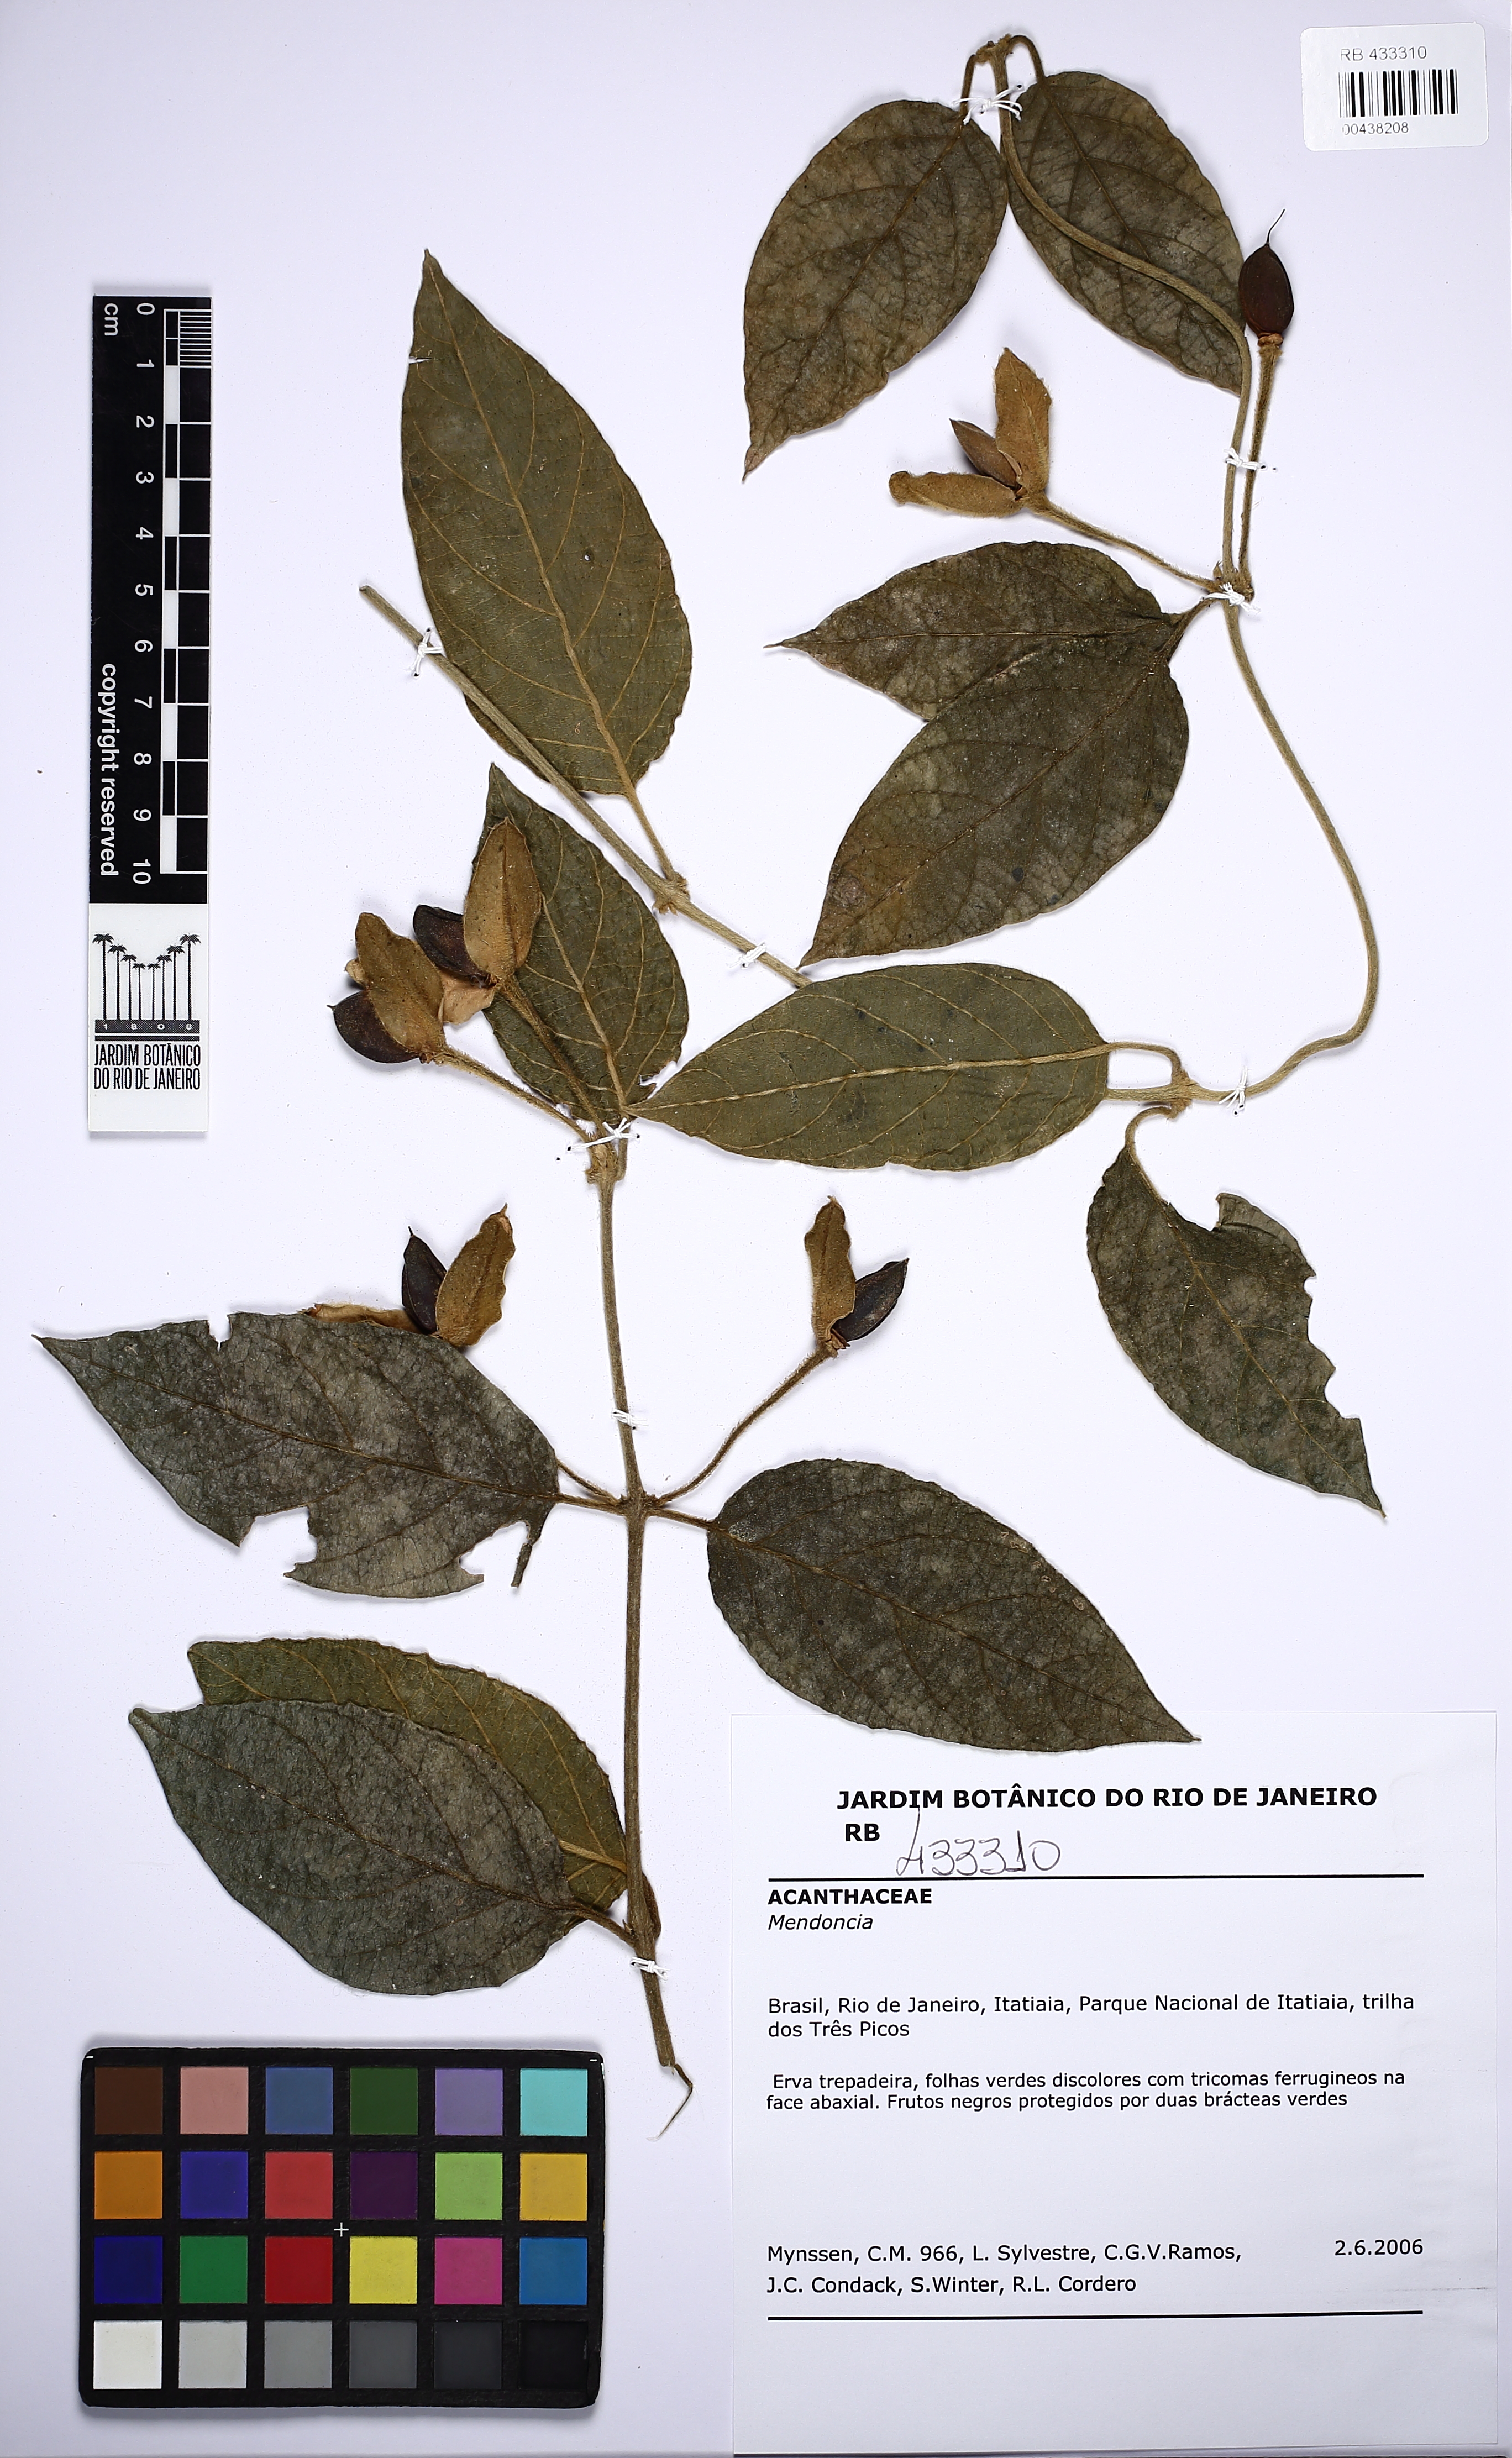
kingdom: Plantae
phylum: Tracheophyta
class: Magnoliopsida
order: Lamiales
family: Acanthaceae
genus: Mendoncia
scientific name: Mendoncia velloziana
